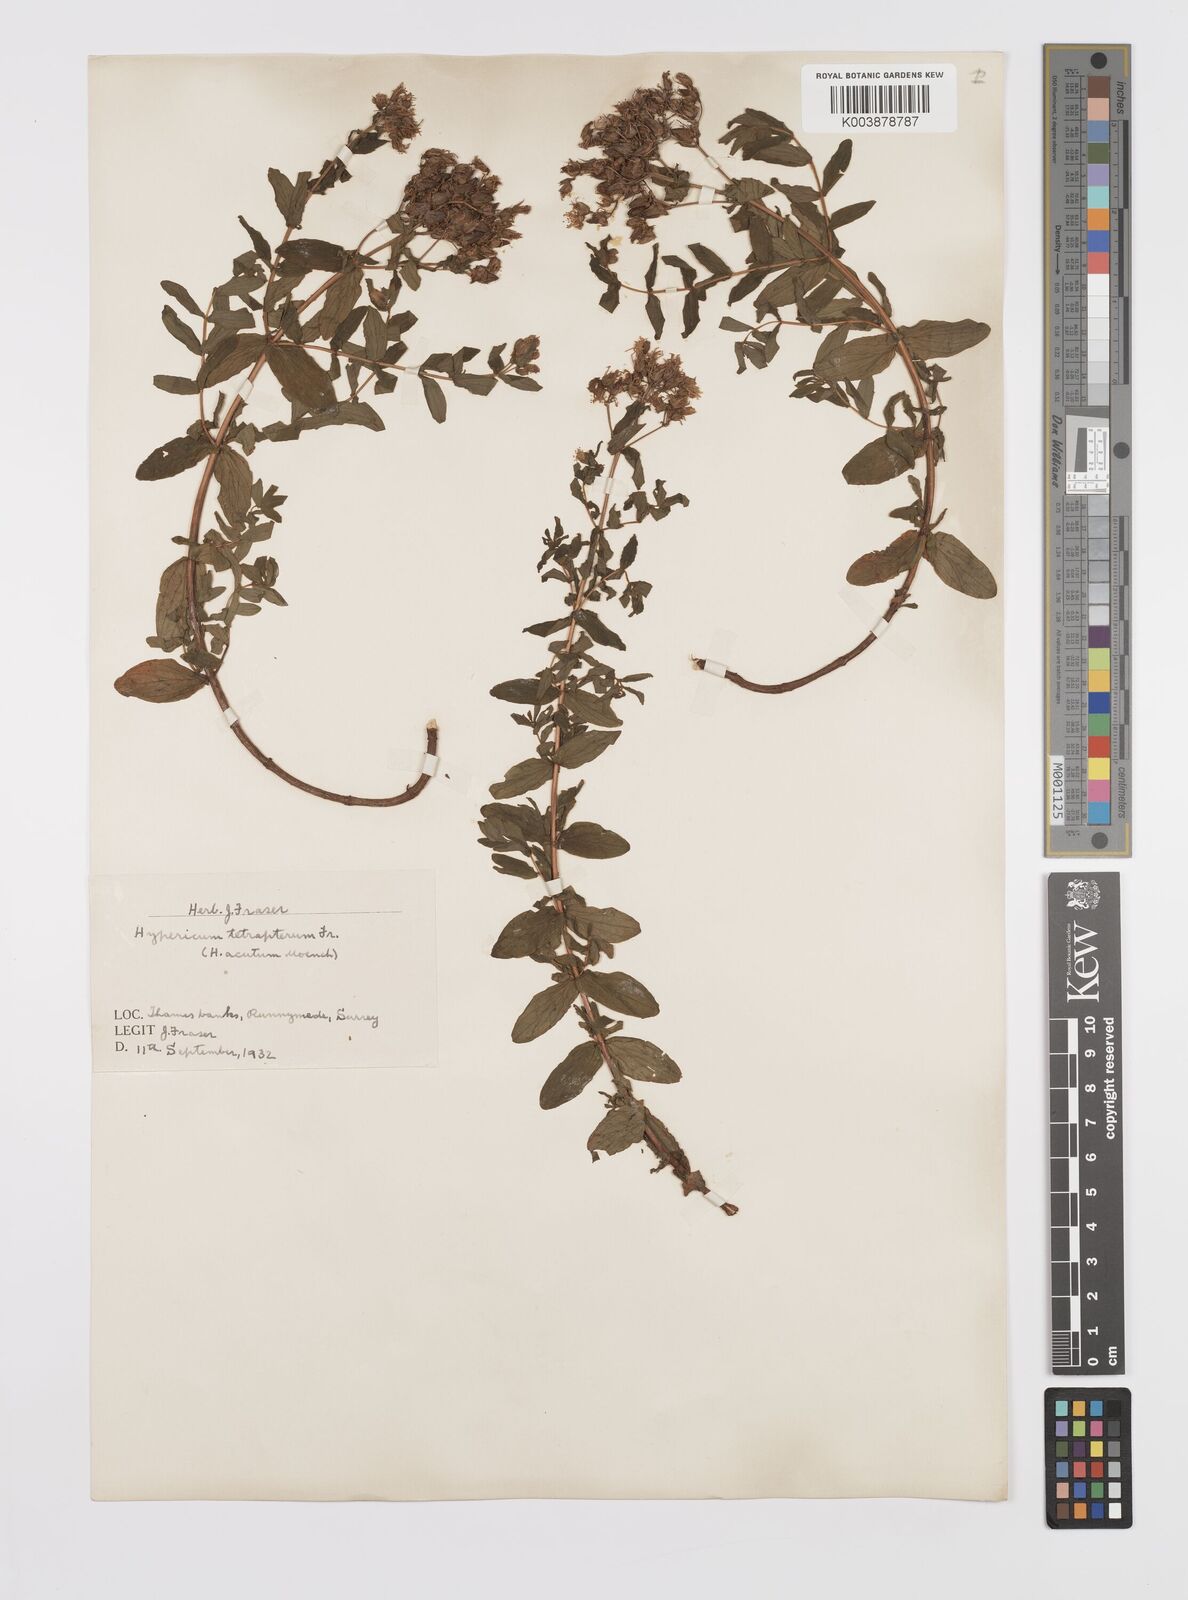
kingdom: Plantae
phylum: Tracheophyta
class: Magnoliopsida
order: Malpighiales
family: Hypericaceae
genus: Hypericum
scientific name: Hypericum tetrapterum
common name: Square-stalked st. john's-wort
